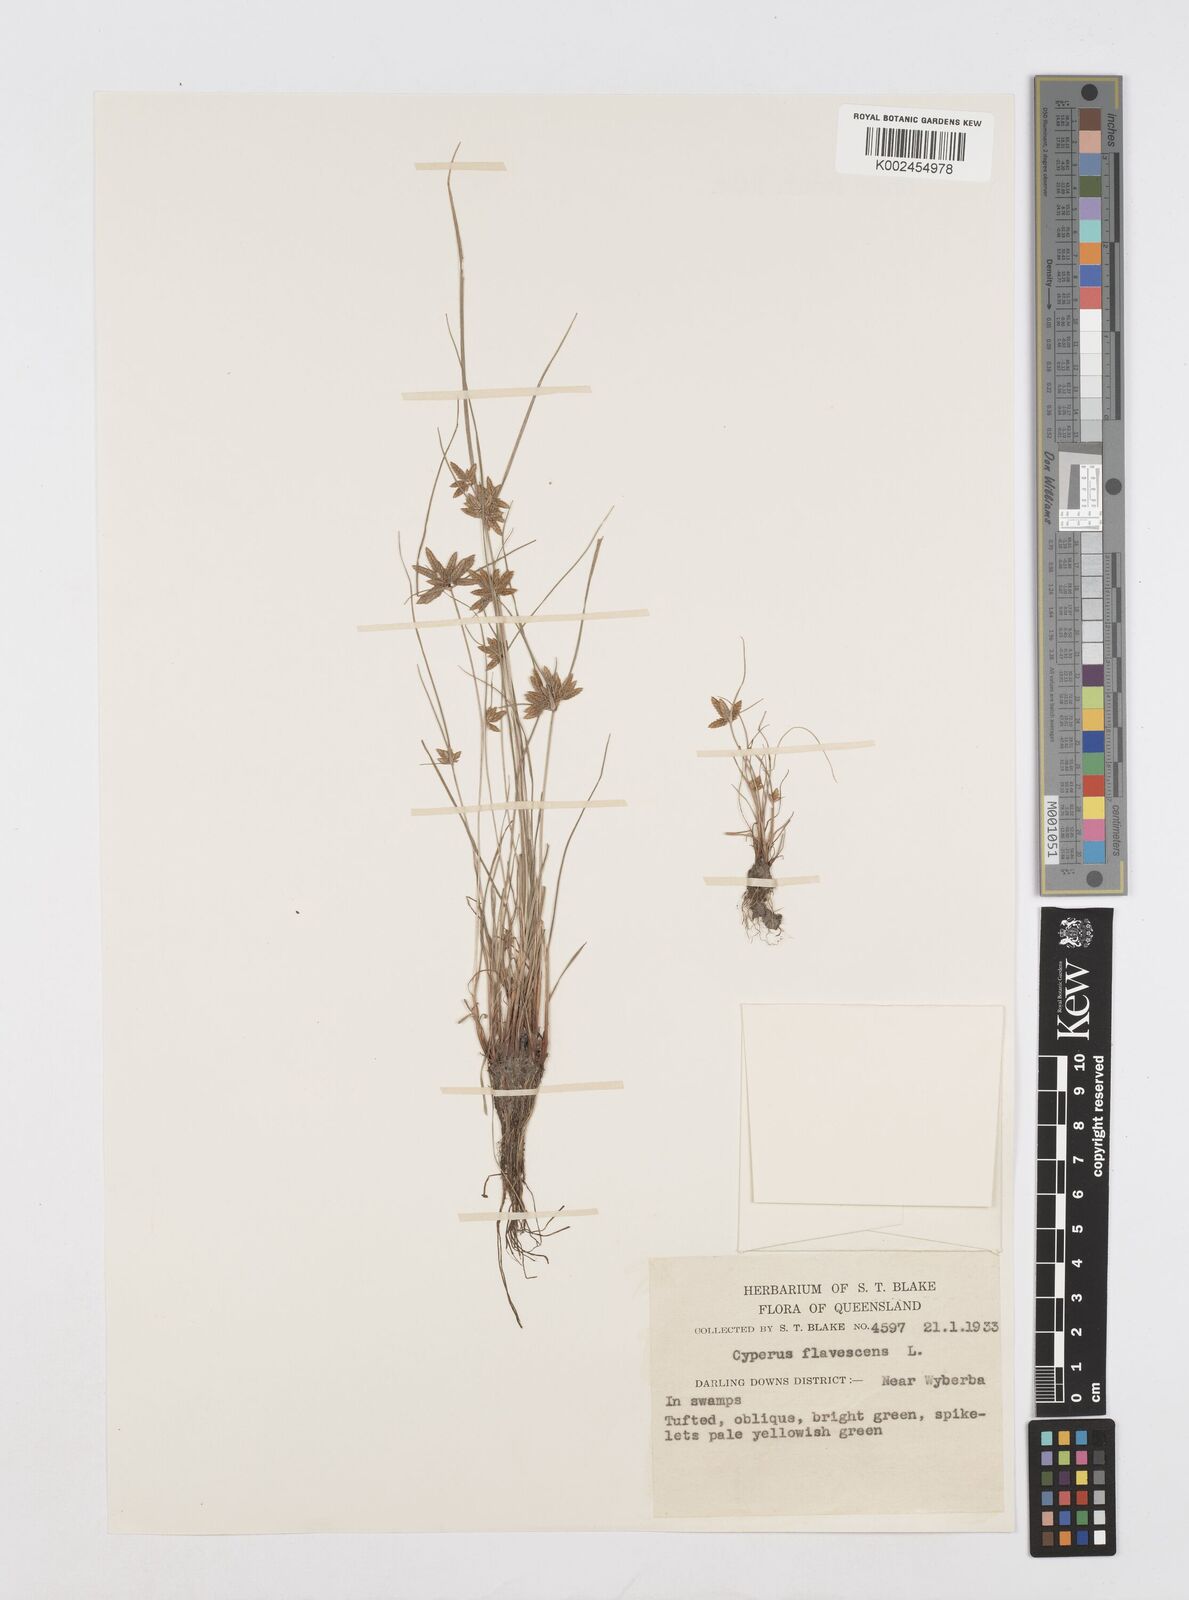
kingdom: Plantae
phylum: Tracheophyta
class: Liliopsida
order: Poales
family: Cyperaceae
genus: Cyperus
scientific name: Cyperus flavescens
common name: Yellow galingale
